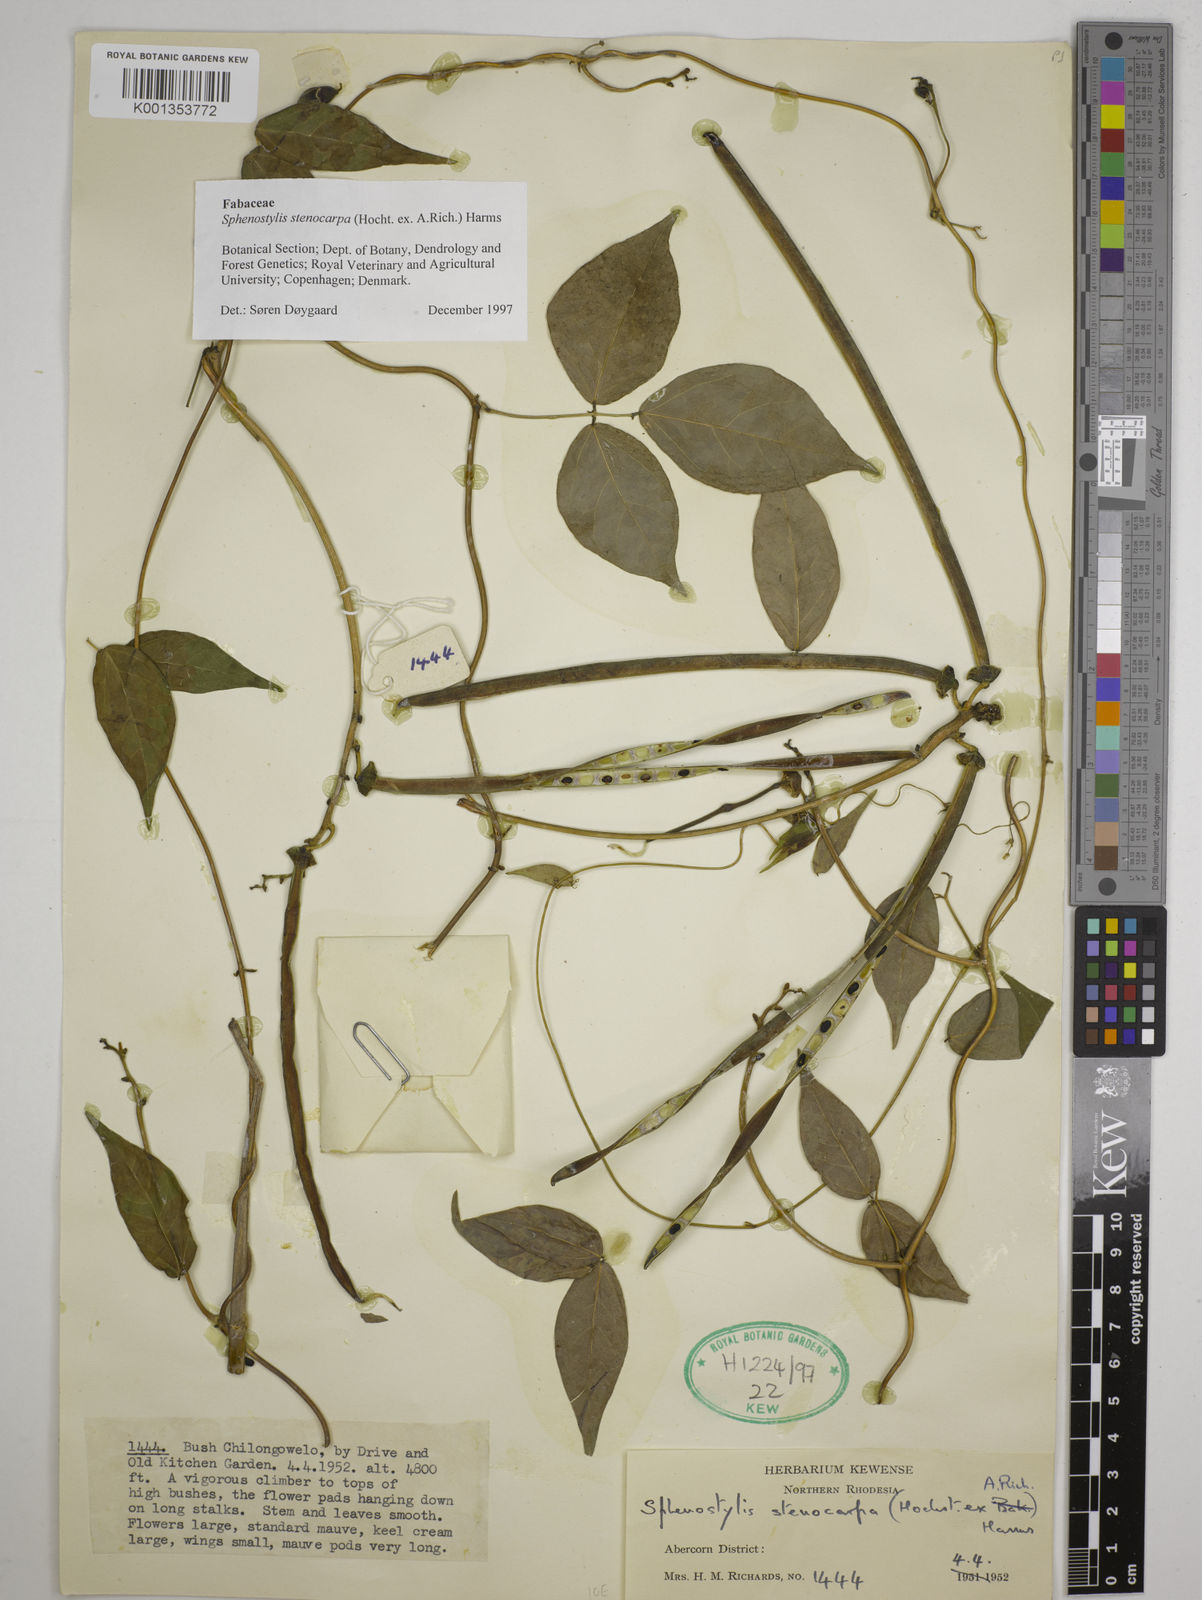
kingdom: Plantae
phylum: Tracheophyta
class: Magnoliopsida
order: Fabales
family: Fabaceae
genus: Sphenostylis
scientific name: Sphenostylis stenocarpa
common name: Yam-pea
